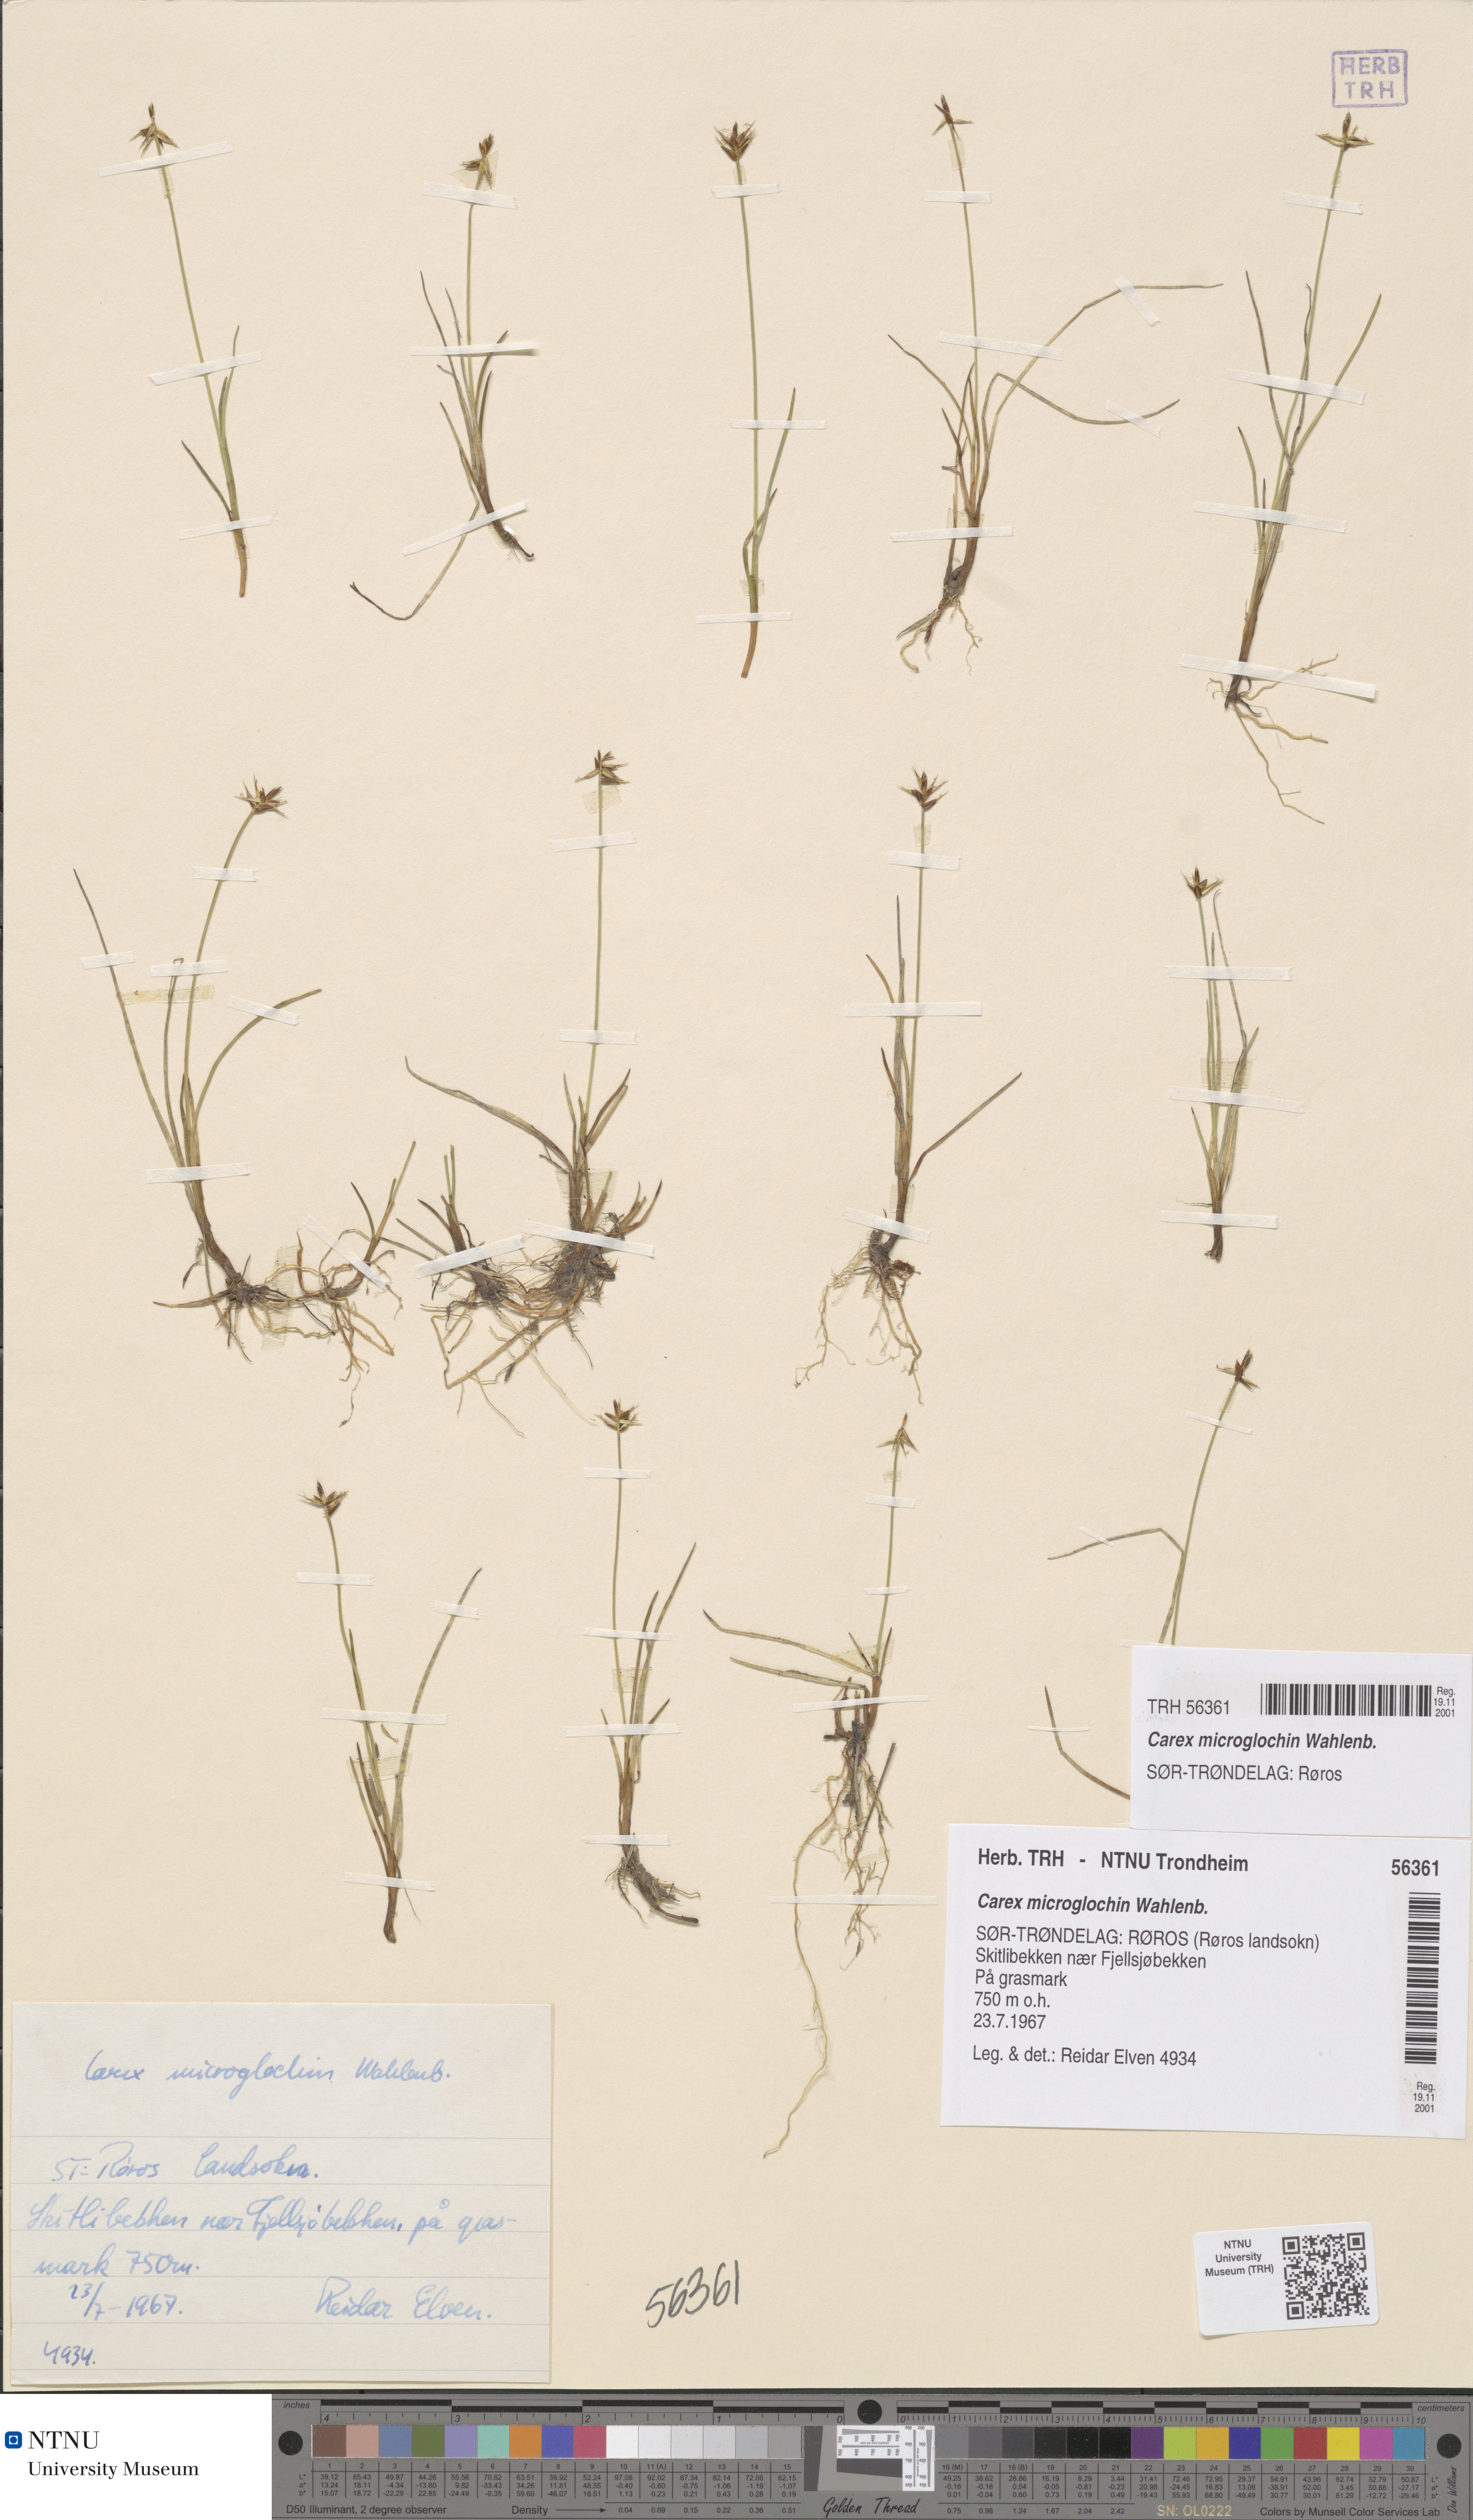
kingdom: Plantae
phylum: Tracheophyta
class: Liliopsida
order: Poales
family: Cyperaceae
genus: Carex
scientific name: Carex microglochin
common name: Bristle sedge
